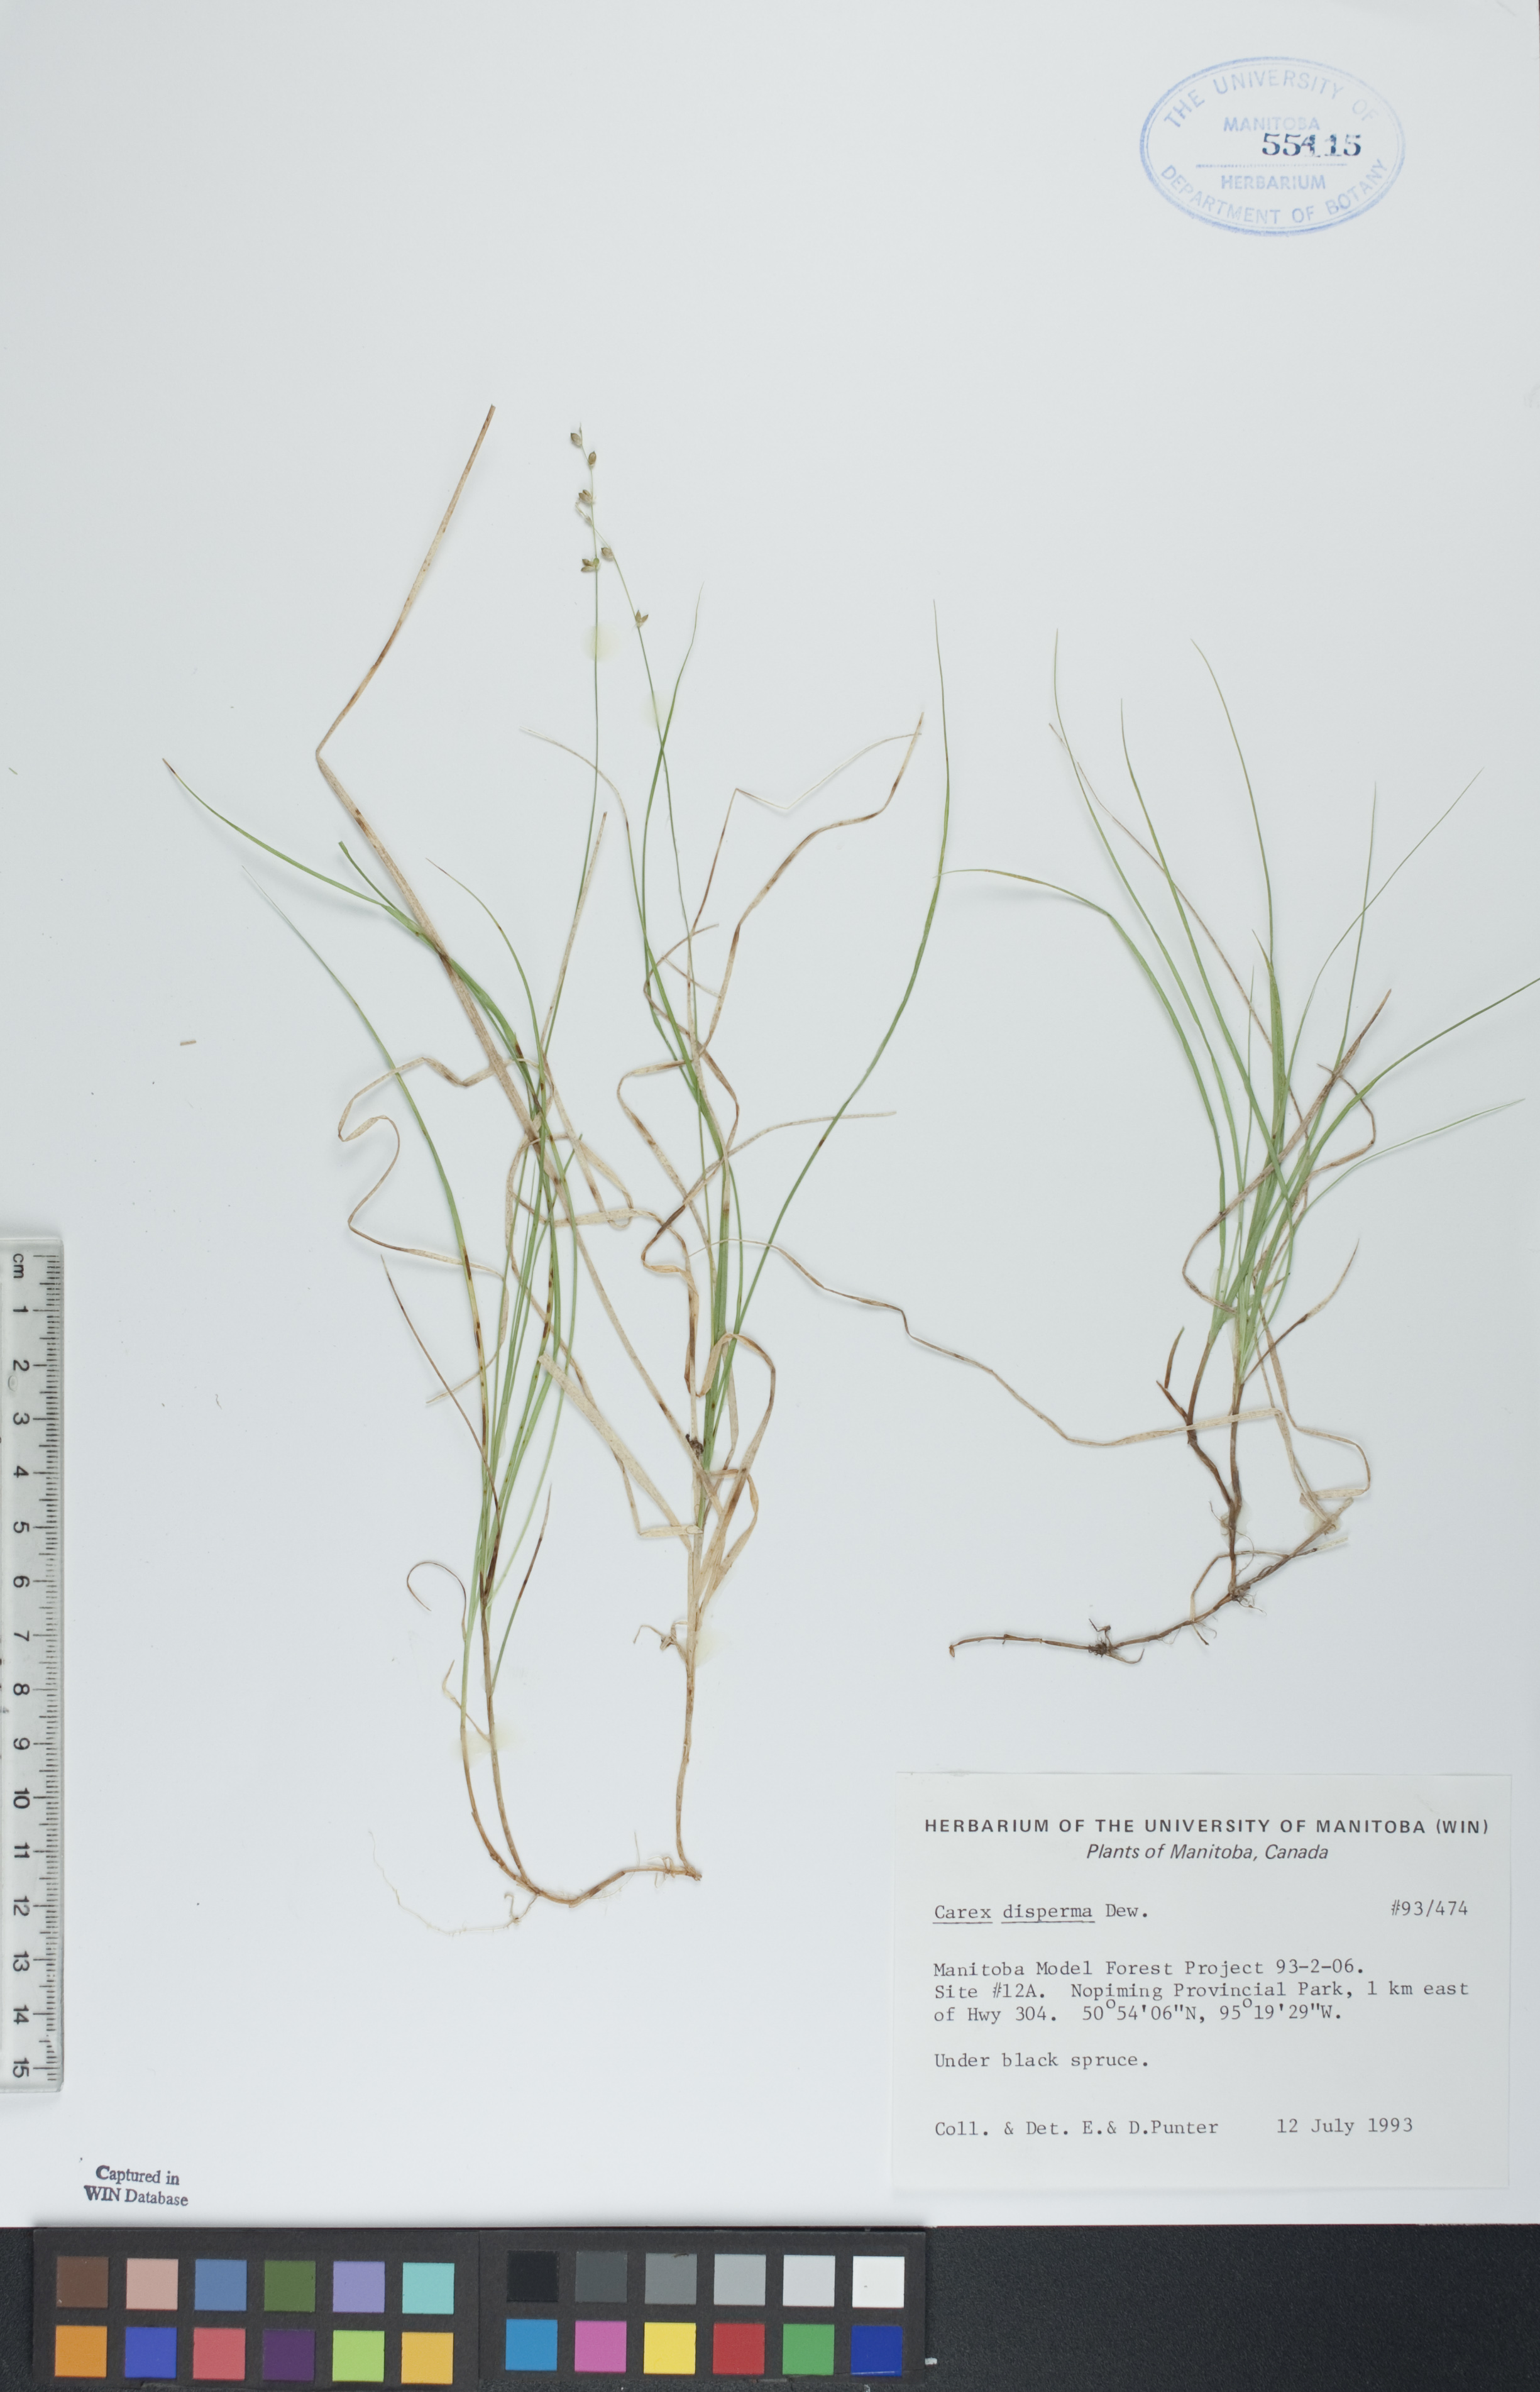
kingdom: Plantae
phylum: Tracheophyta
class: Liliopsida
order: Poales
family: Cyperaceae
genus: Carex
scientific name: Carex disperma
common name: Short-leaved sedge
